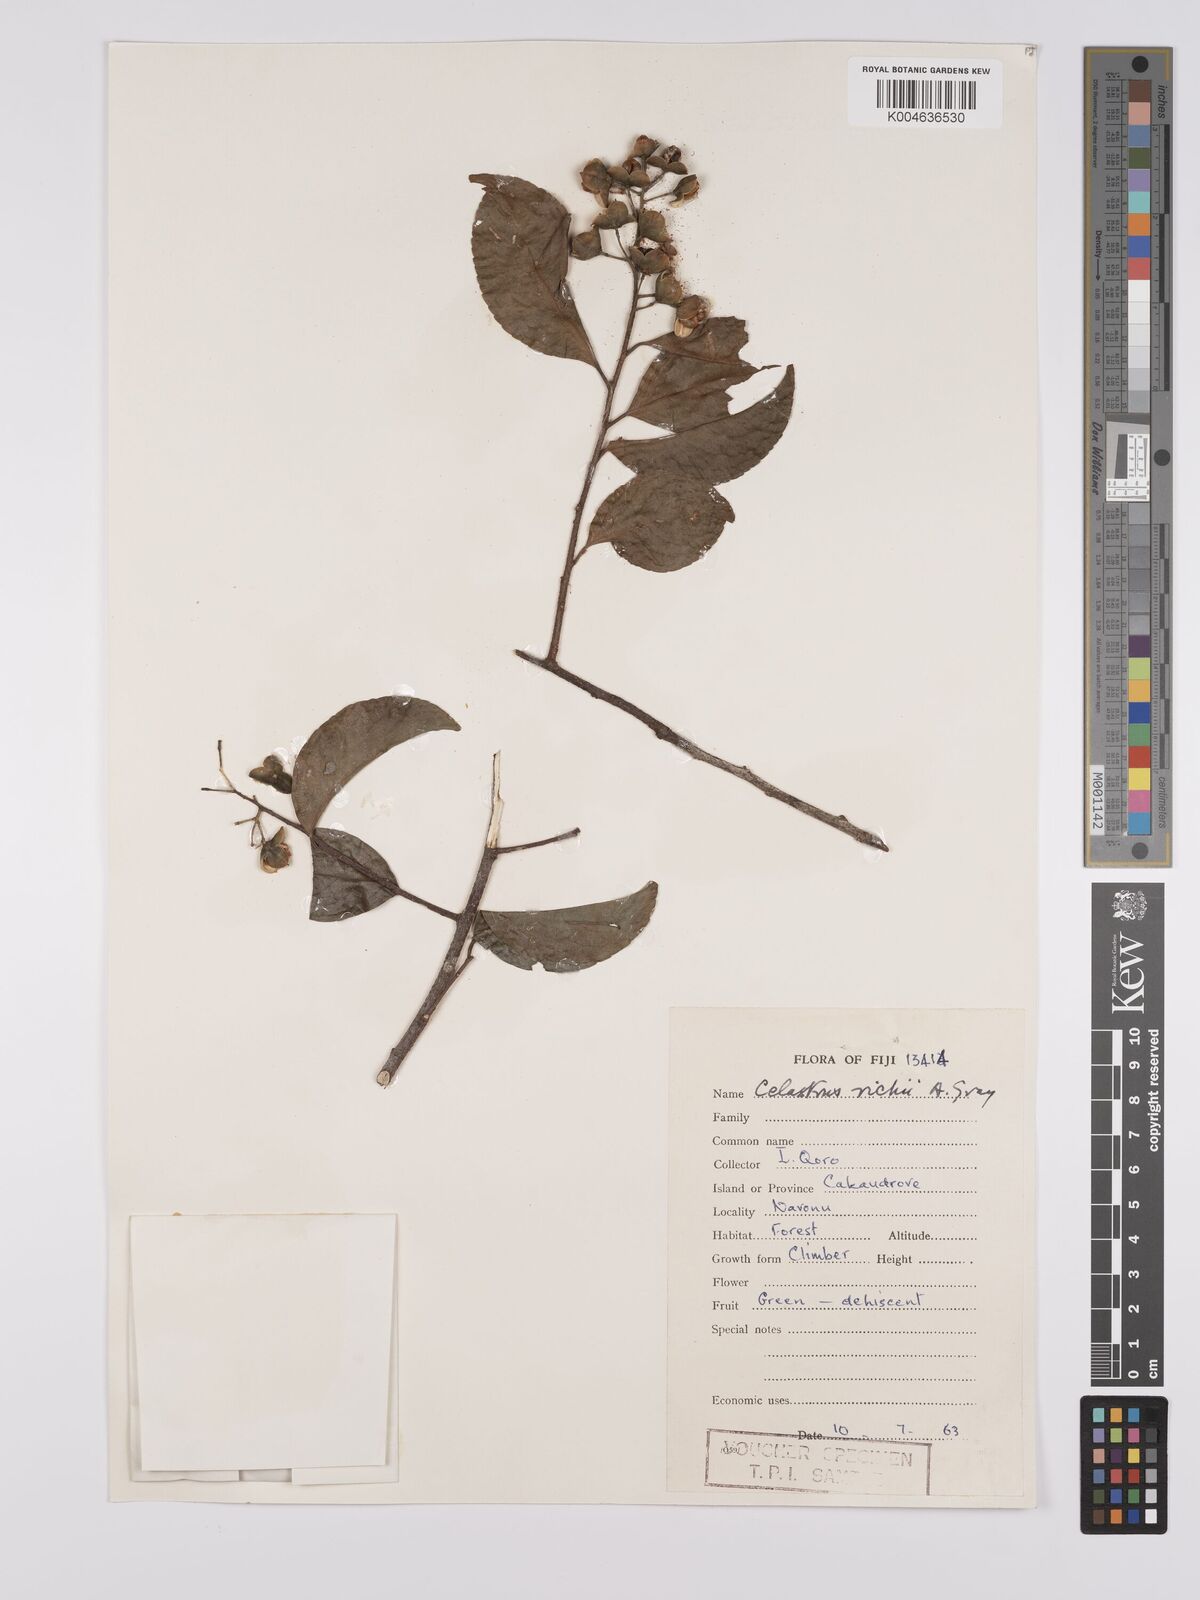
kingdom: Plantae
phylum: Tracheophyta
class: Magnoliopsida
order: Celastrales
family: Celastraceae
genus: Celastrus
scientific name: Celastrus richii
